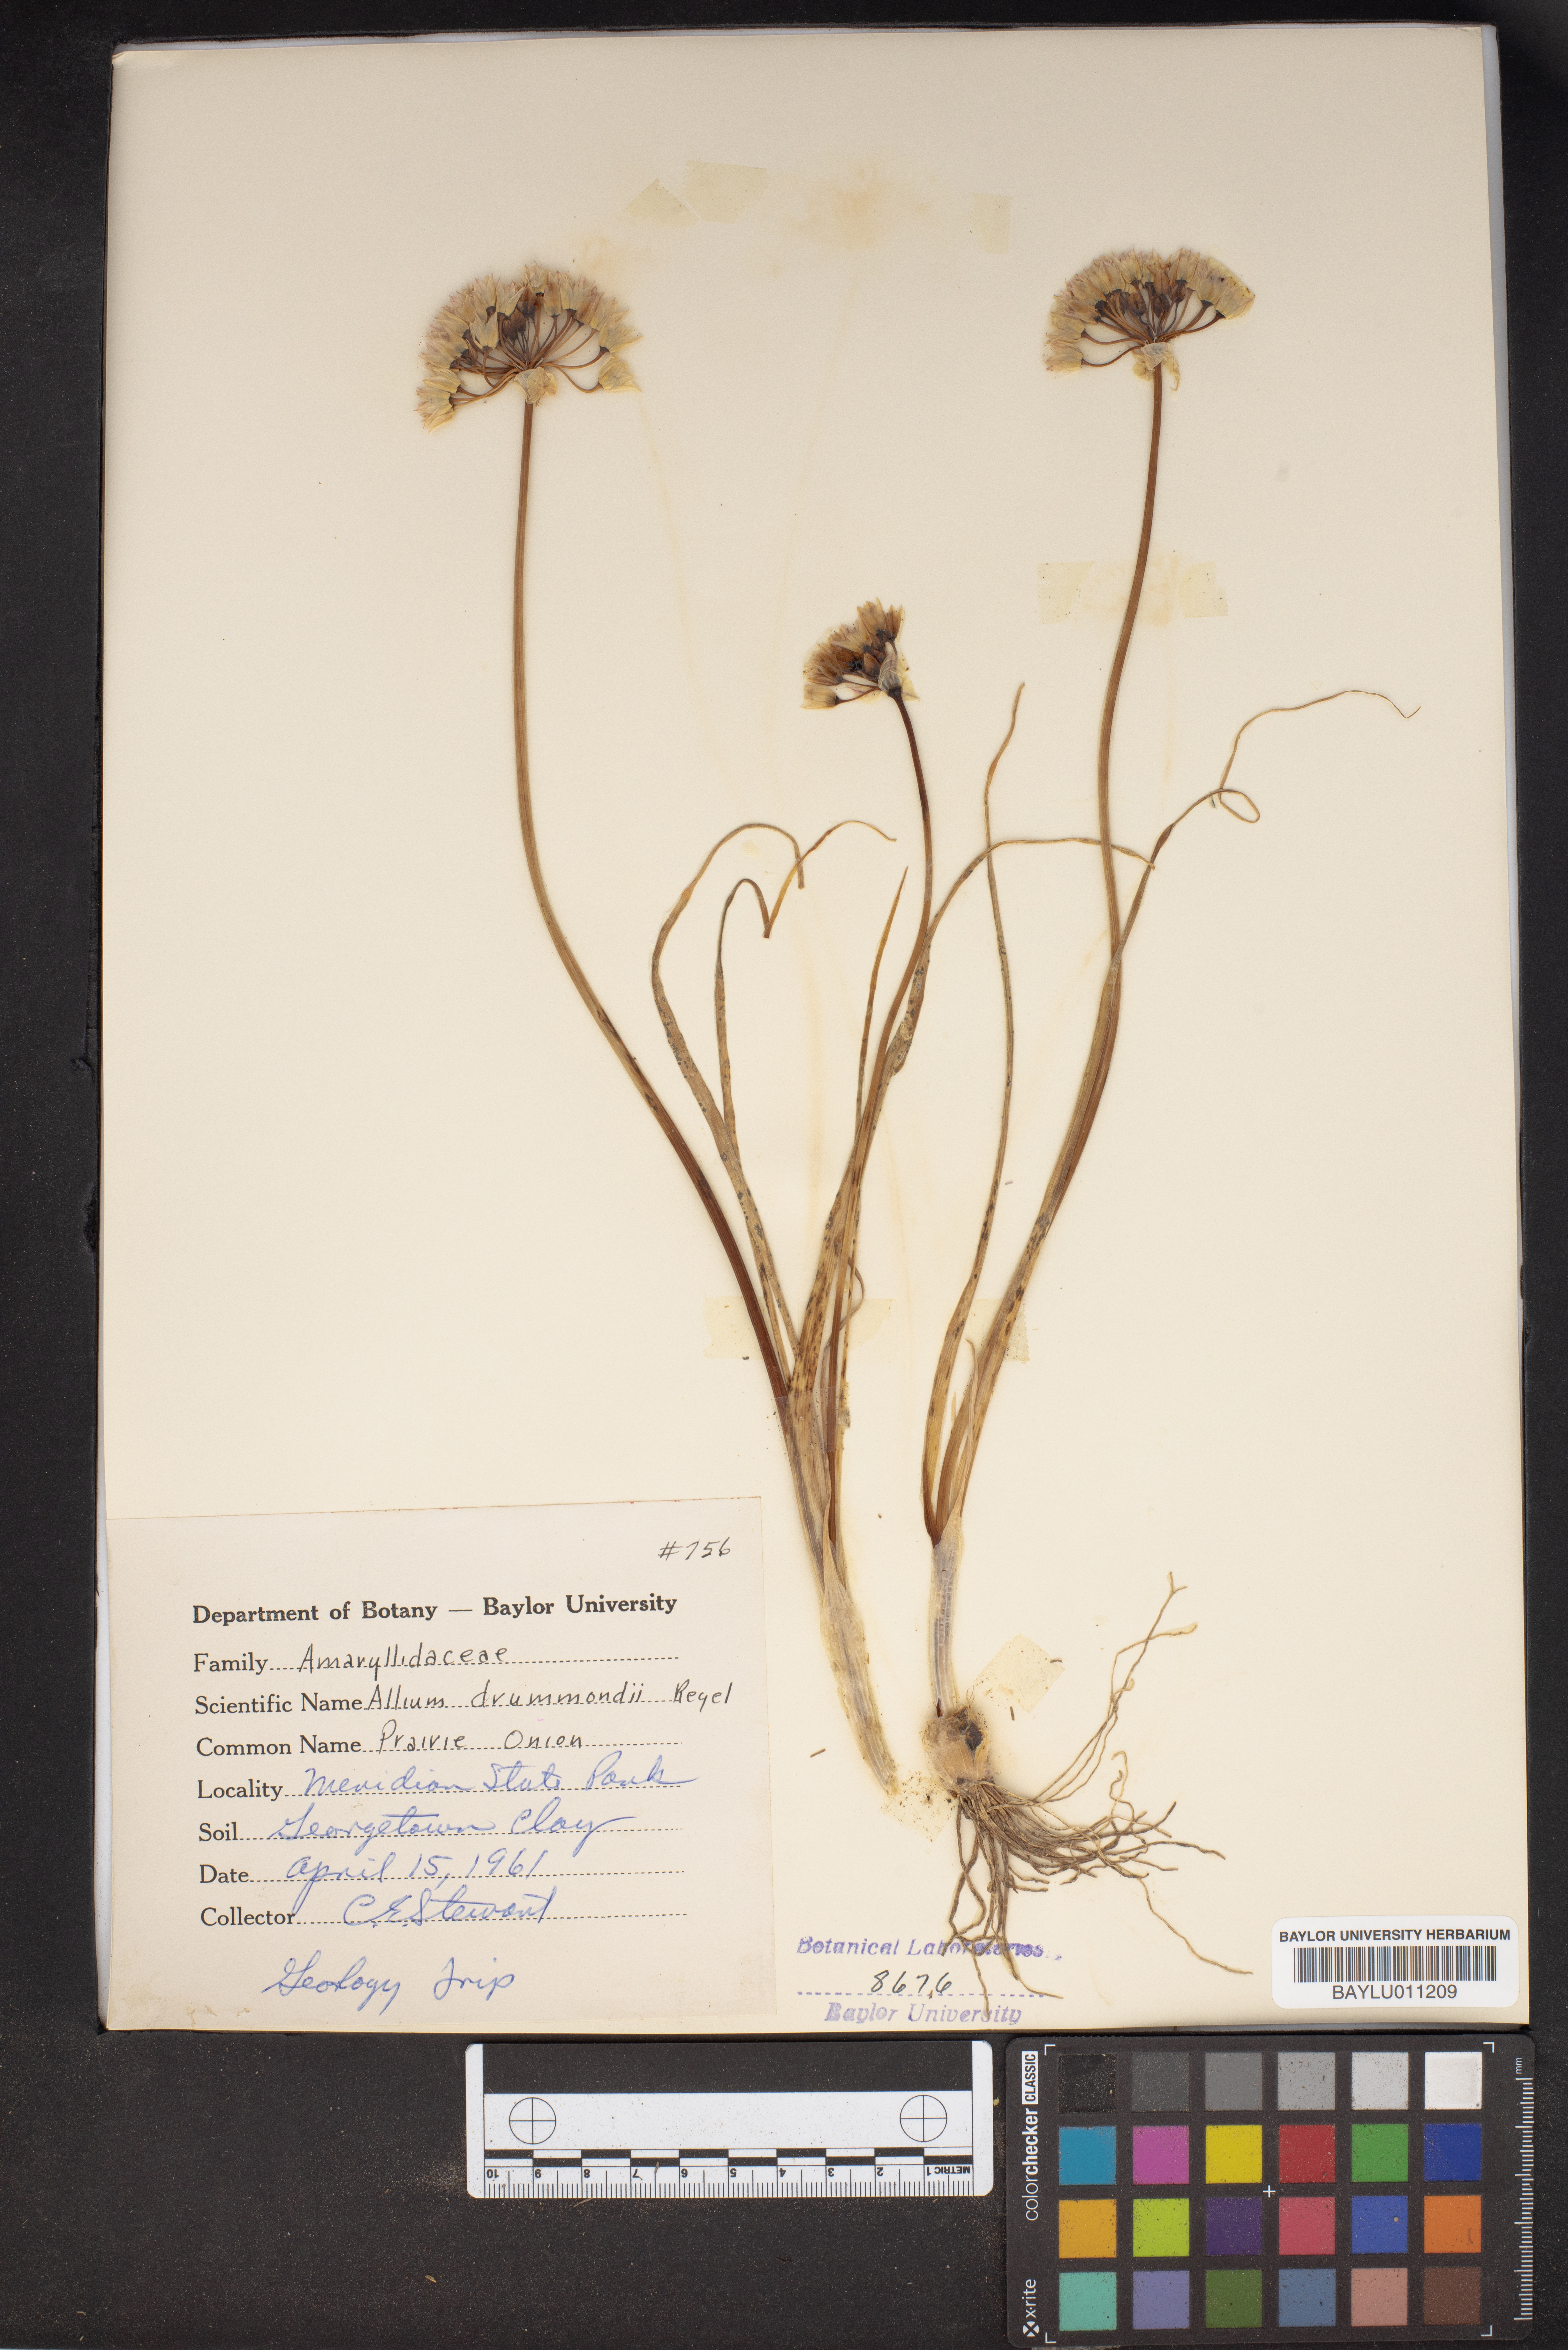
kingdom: Plantae
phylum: Tracheophyta
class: Liliopsida
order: Asparagales
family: Amaryllidaceae
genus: Allium
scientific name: Allium drummondii
